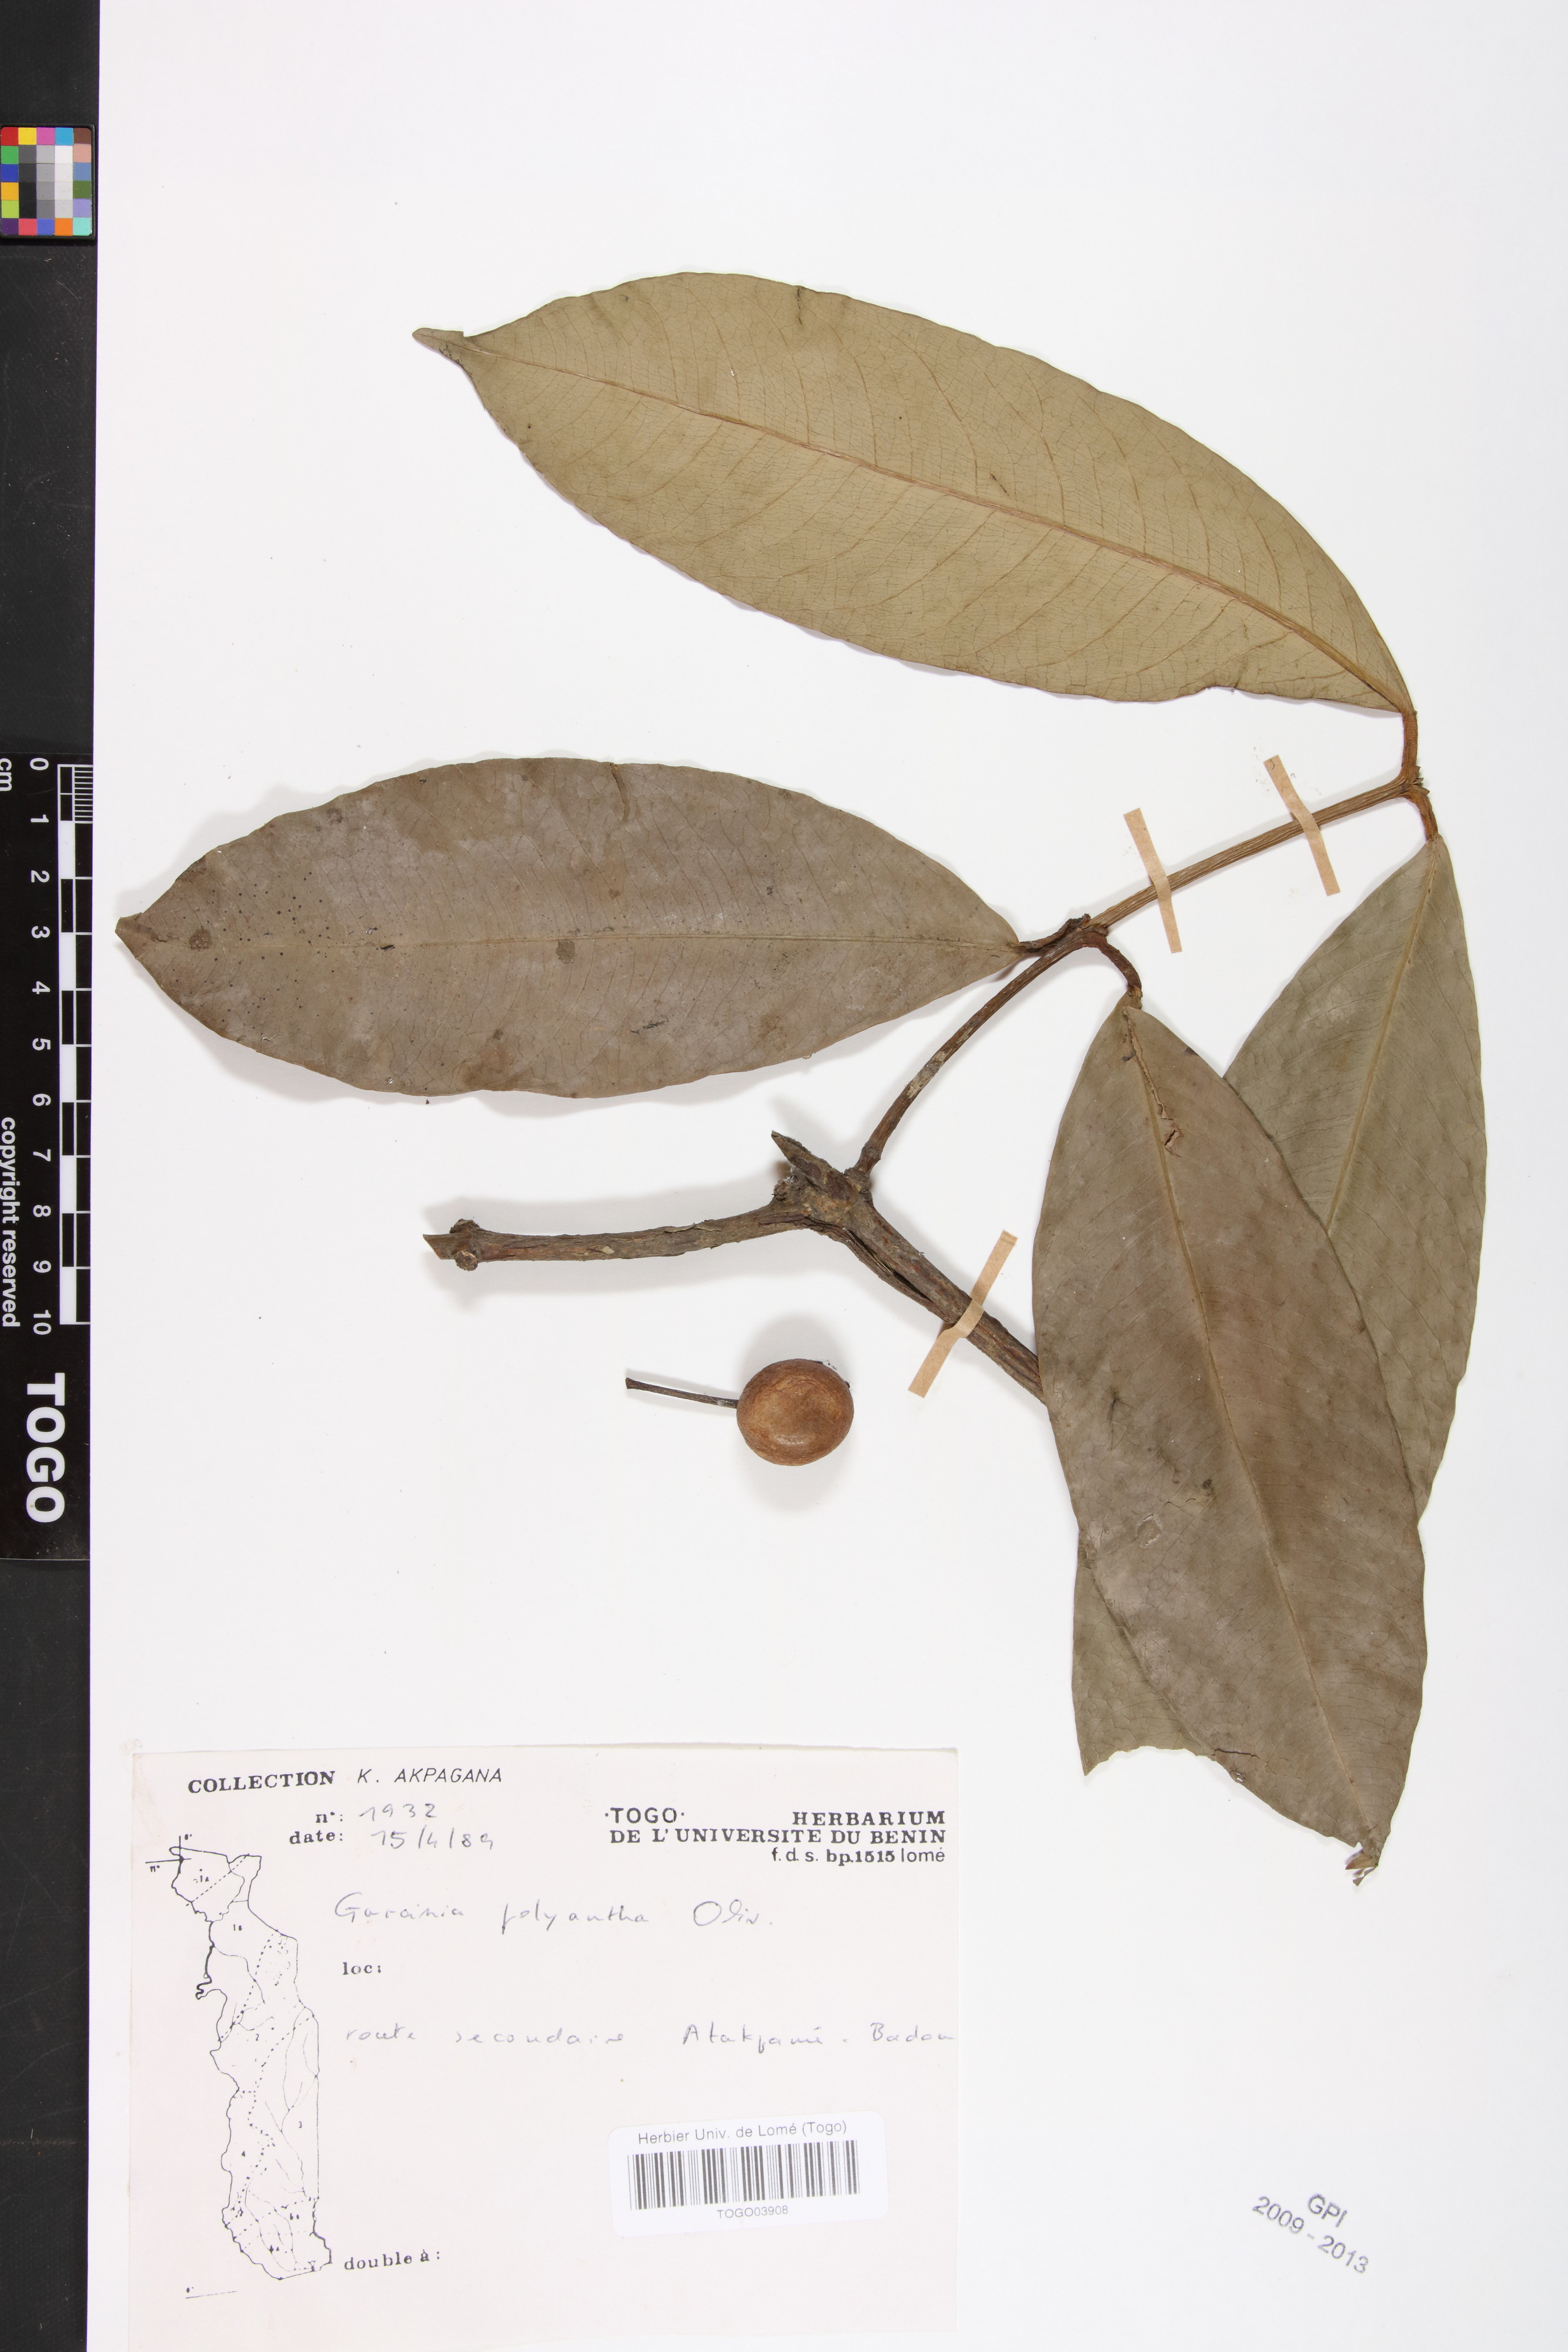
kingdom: Plantae
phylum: Tracheophyta
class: Magnoliopsida
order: Malpighiales
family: Clusiaceae
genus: Garcinia
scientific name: Garcinia smeathmannii
